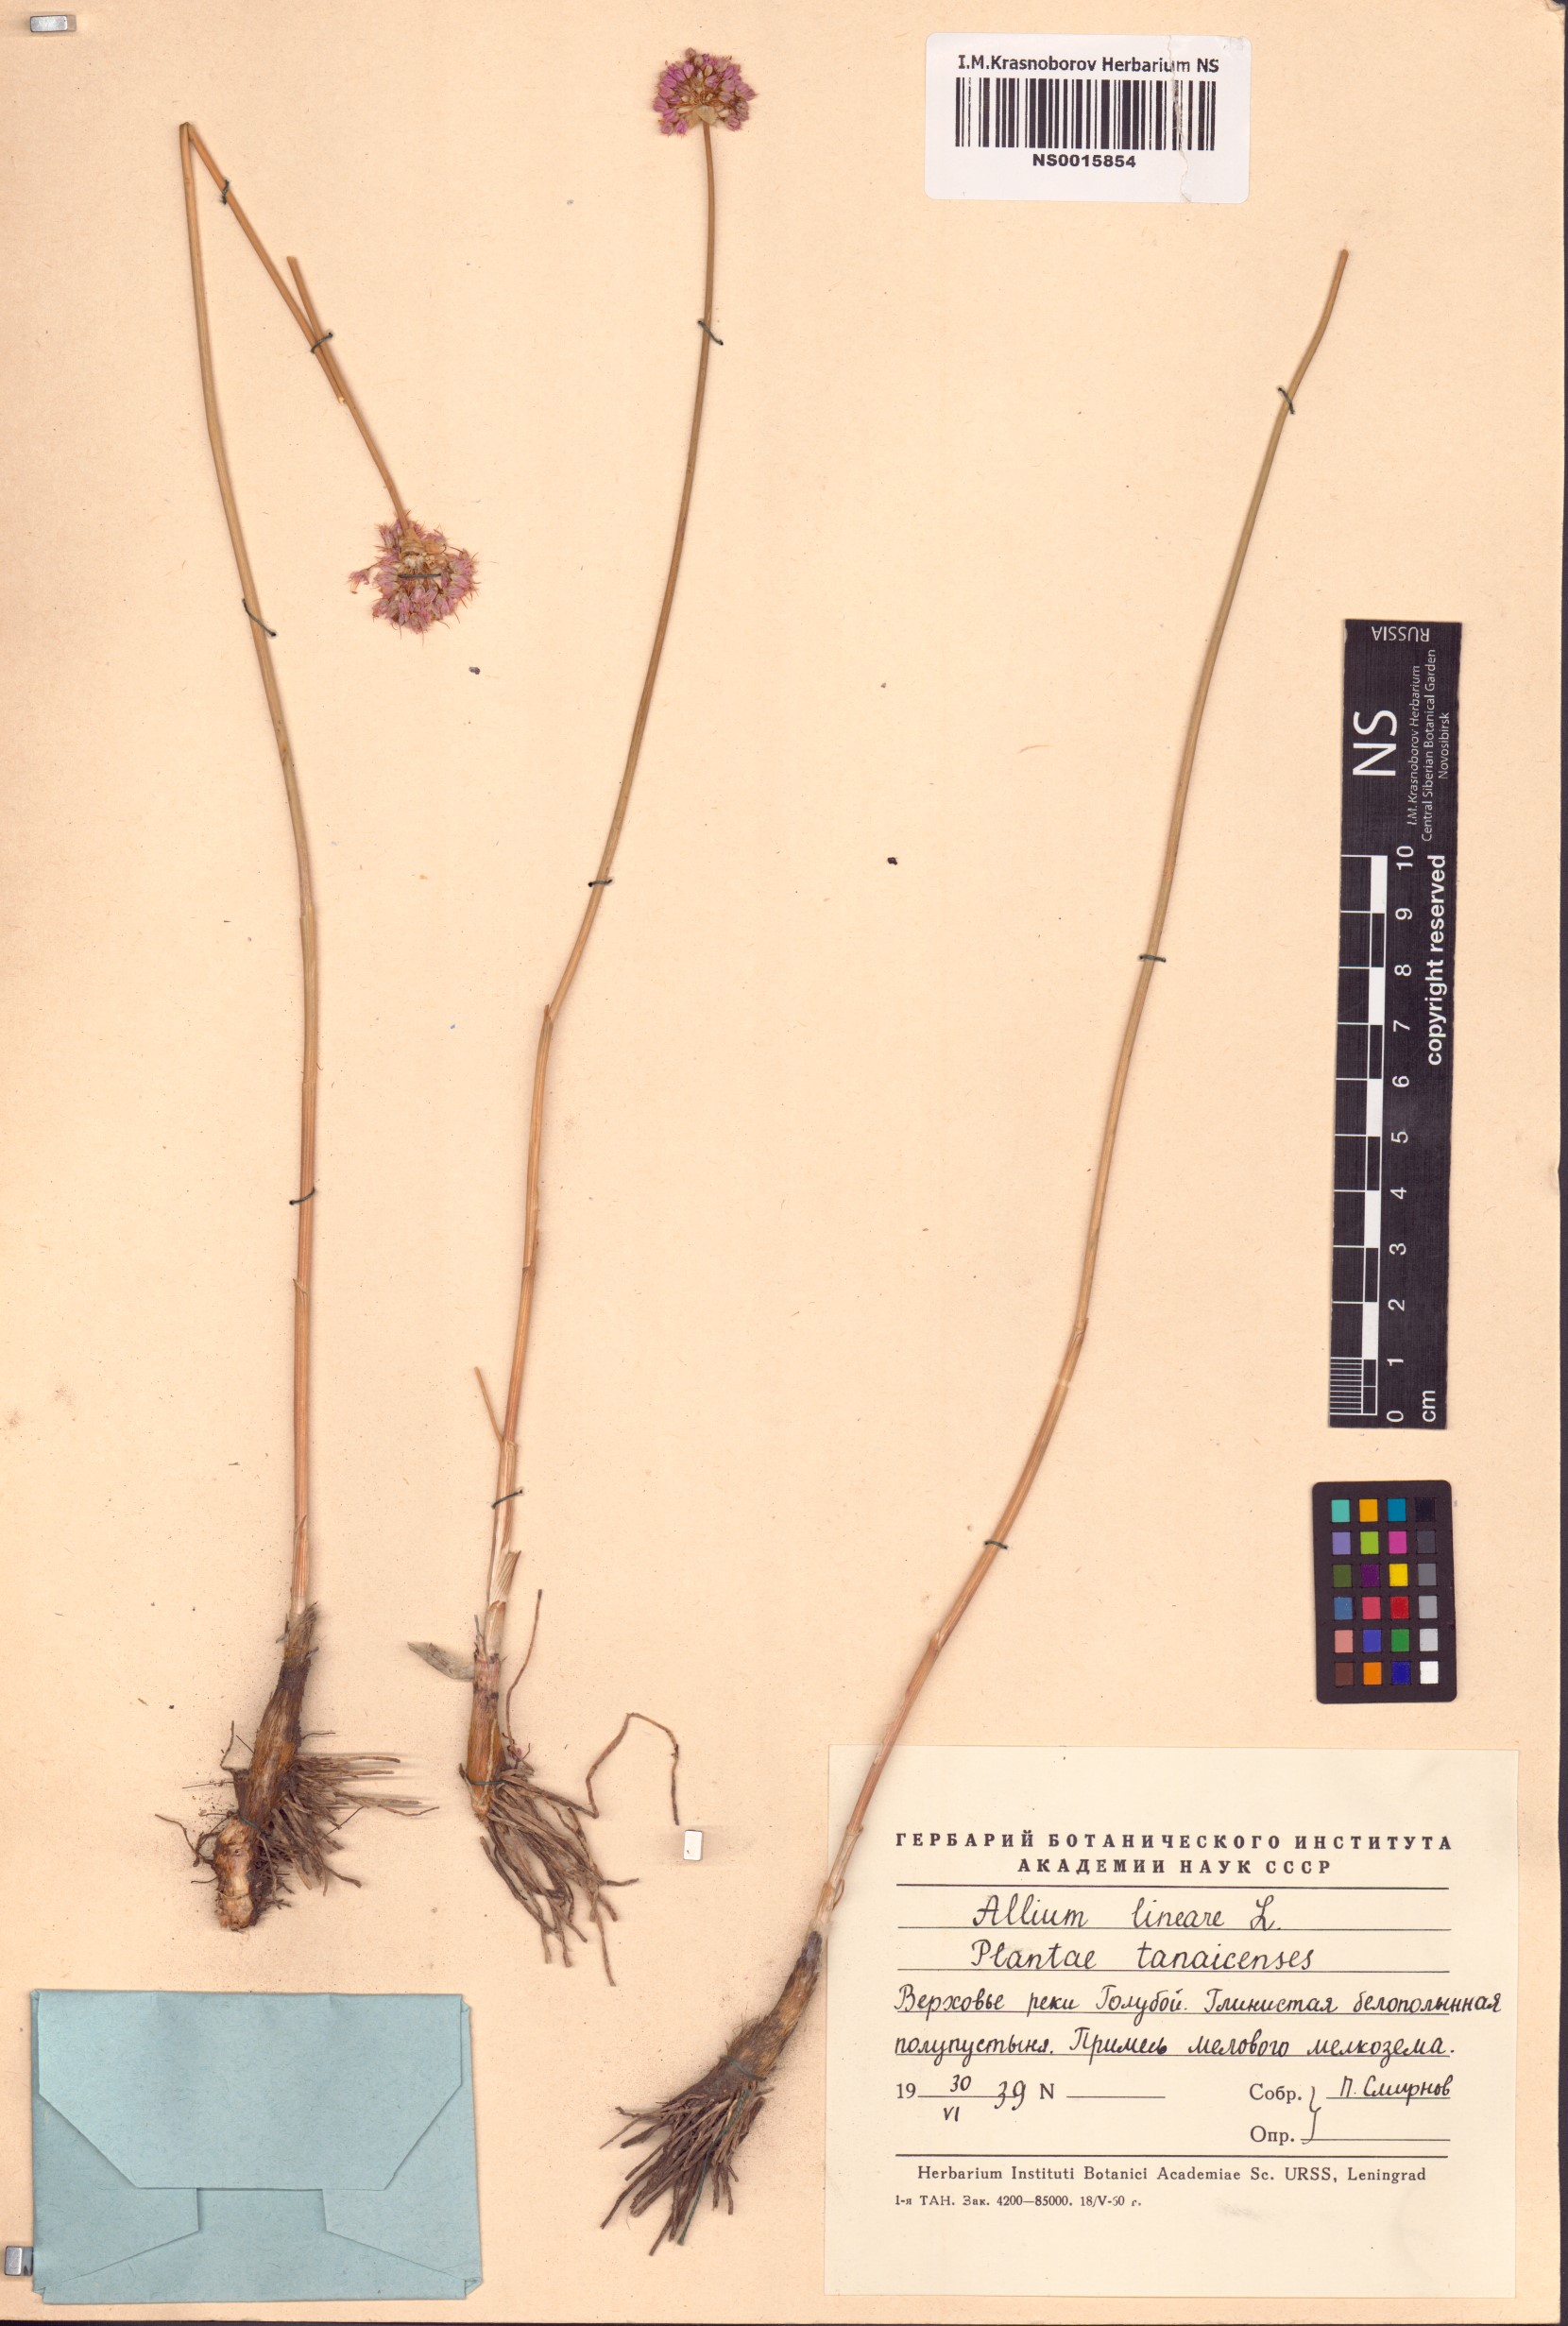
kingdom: Plantae
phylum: Tracheophyta
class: Liliopsida
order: Asparagales
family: Amaryllidaceae
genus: Allium
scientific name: Allium lineare
